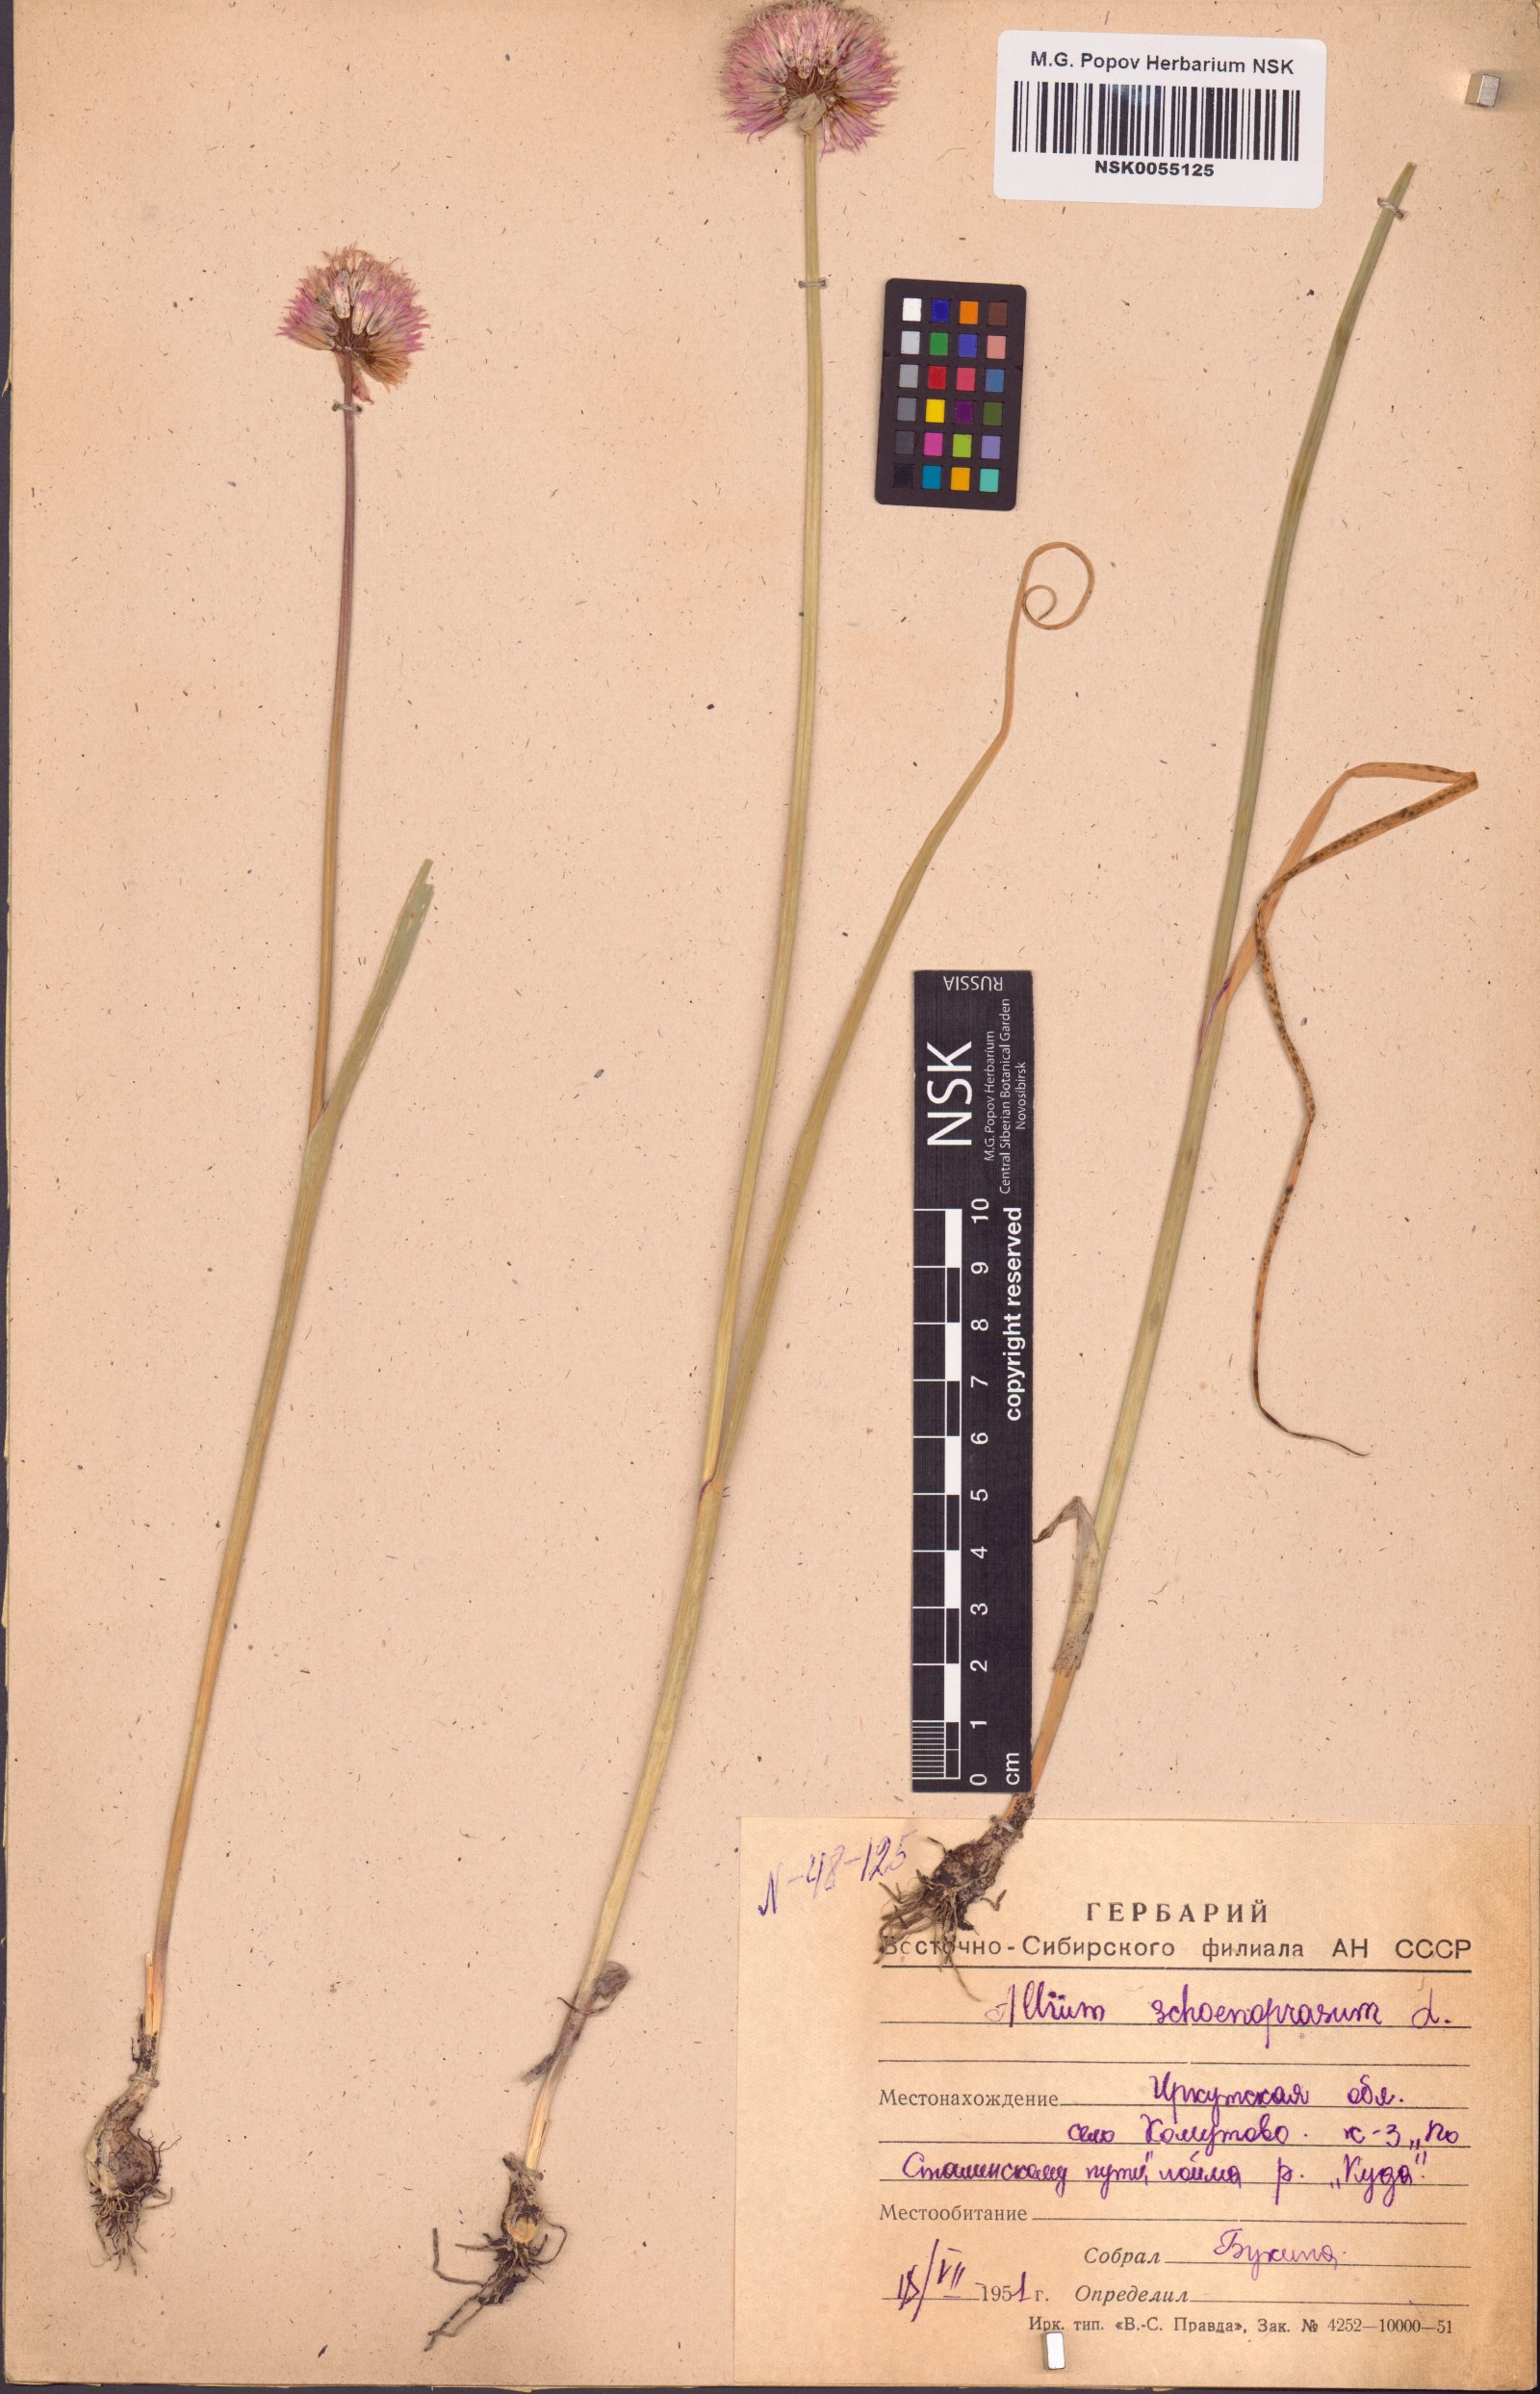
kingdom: Plantae
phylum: Tracheophyta
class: Liliopsida
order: Asparagales
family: Amaryllidaceae
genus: Allium
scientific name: Allium schoenoprasum
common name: Chives
